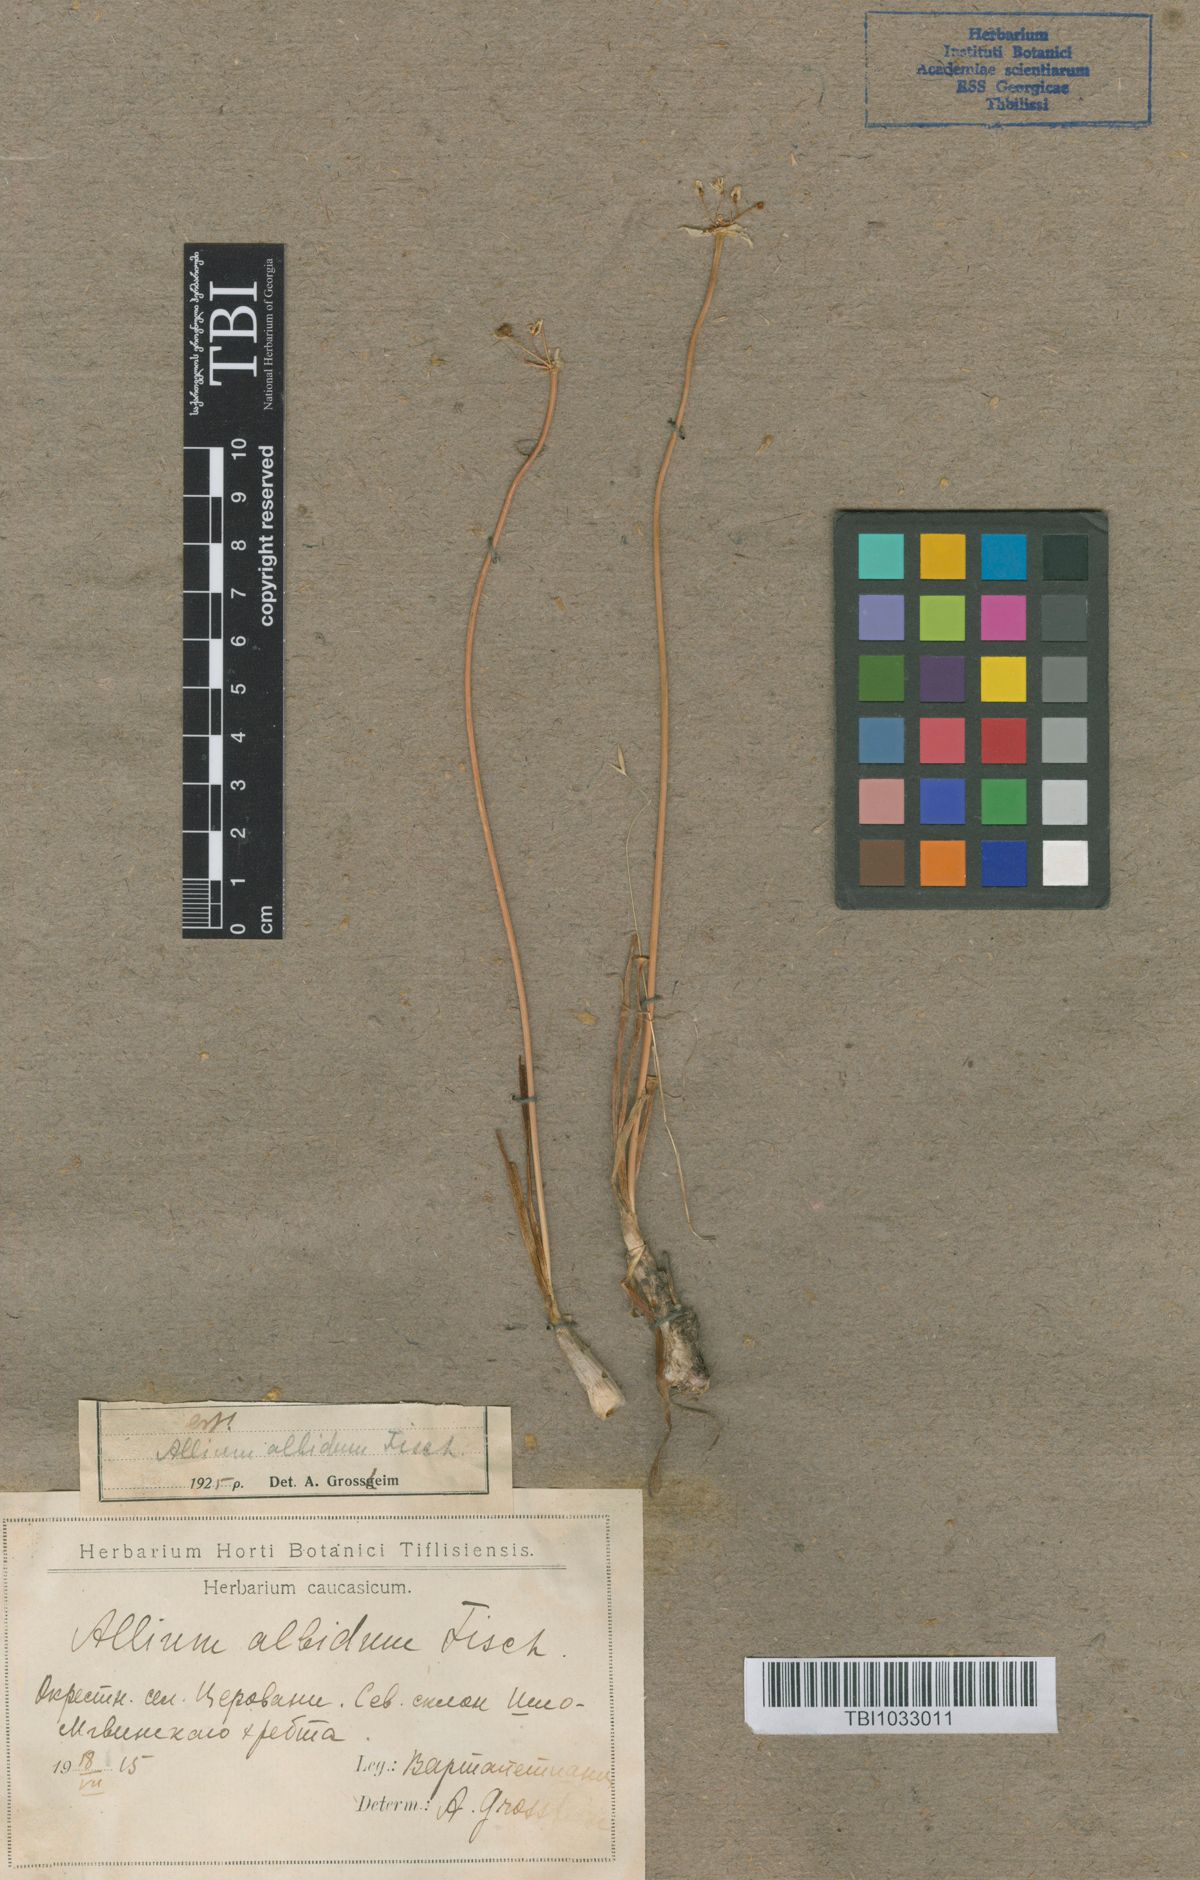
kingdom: Plantae
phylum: Tracheophyta
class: Liliopsida
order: Asparagales
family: Amaryllidaceae
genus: Allium
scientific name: Allium denudatum
